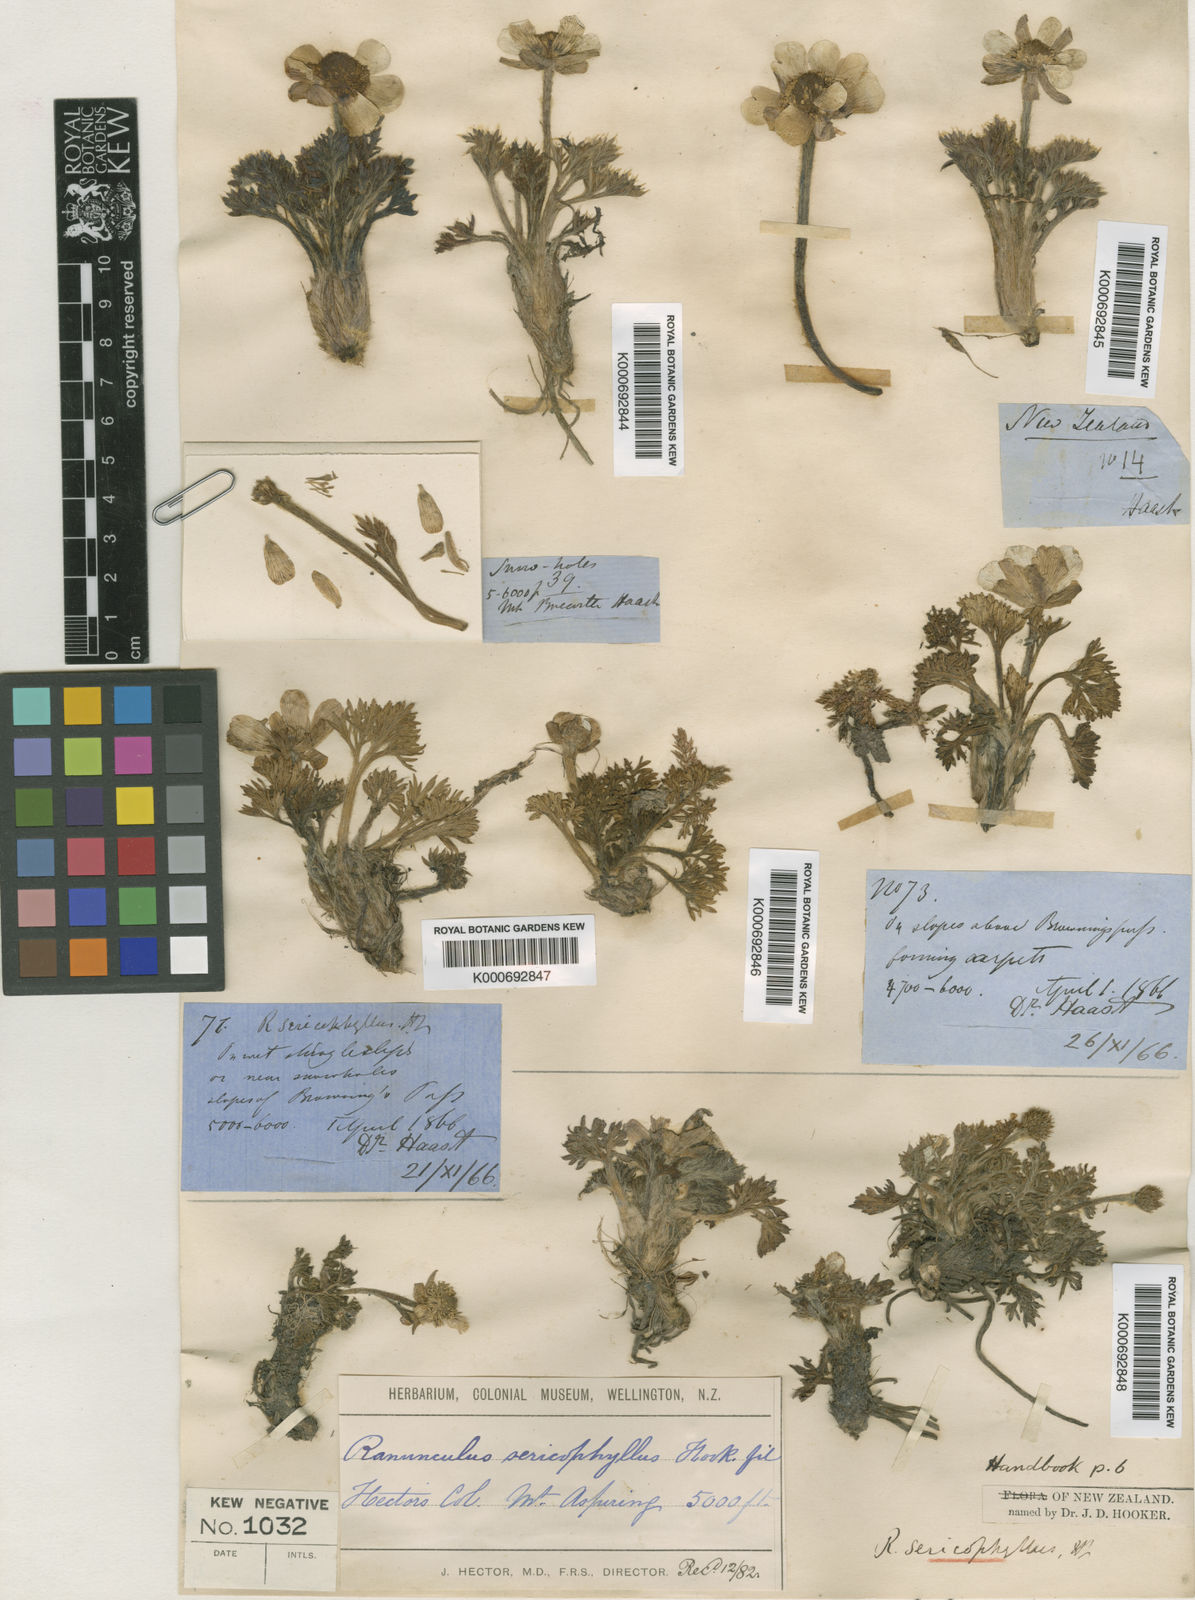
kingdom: Plantae
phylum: Tracheophyta
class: Magnoliopsida
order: Ranunculales
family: Ranunculaceae
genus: Ranunculus
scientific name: Ranunculus sericophyllus
